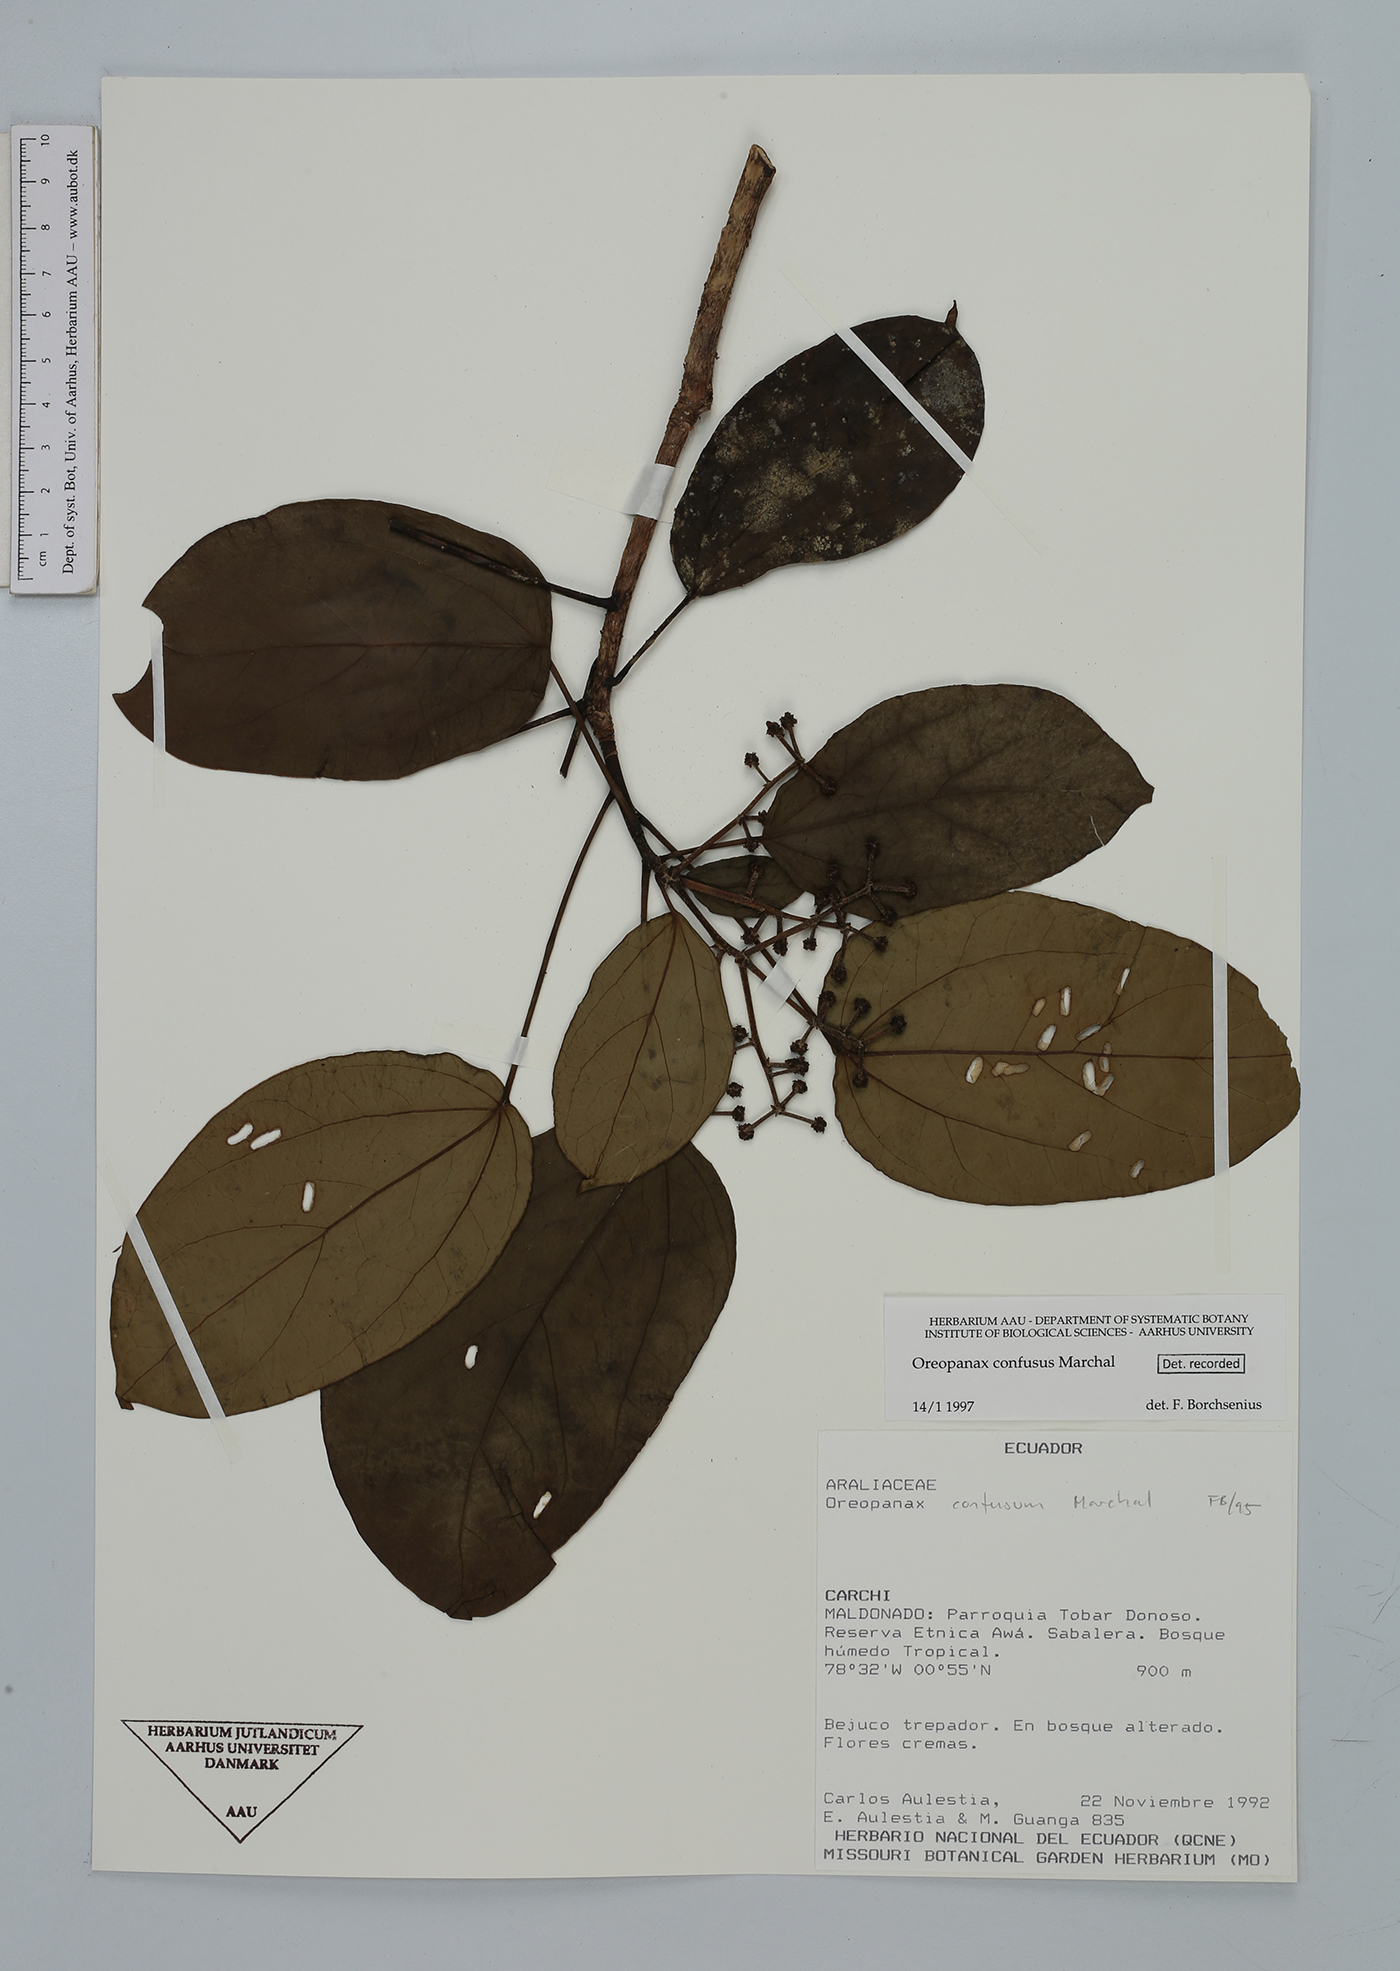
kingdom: Plantae
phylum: Tracheophyta
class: Magnoliopsida
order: Apiales
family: Araliaceae
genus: Oreopanax
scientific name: Oreopanax confusus
